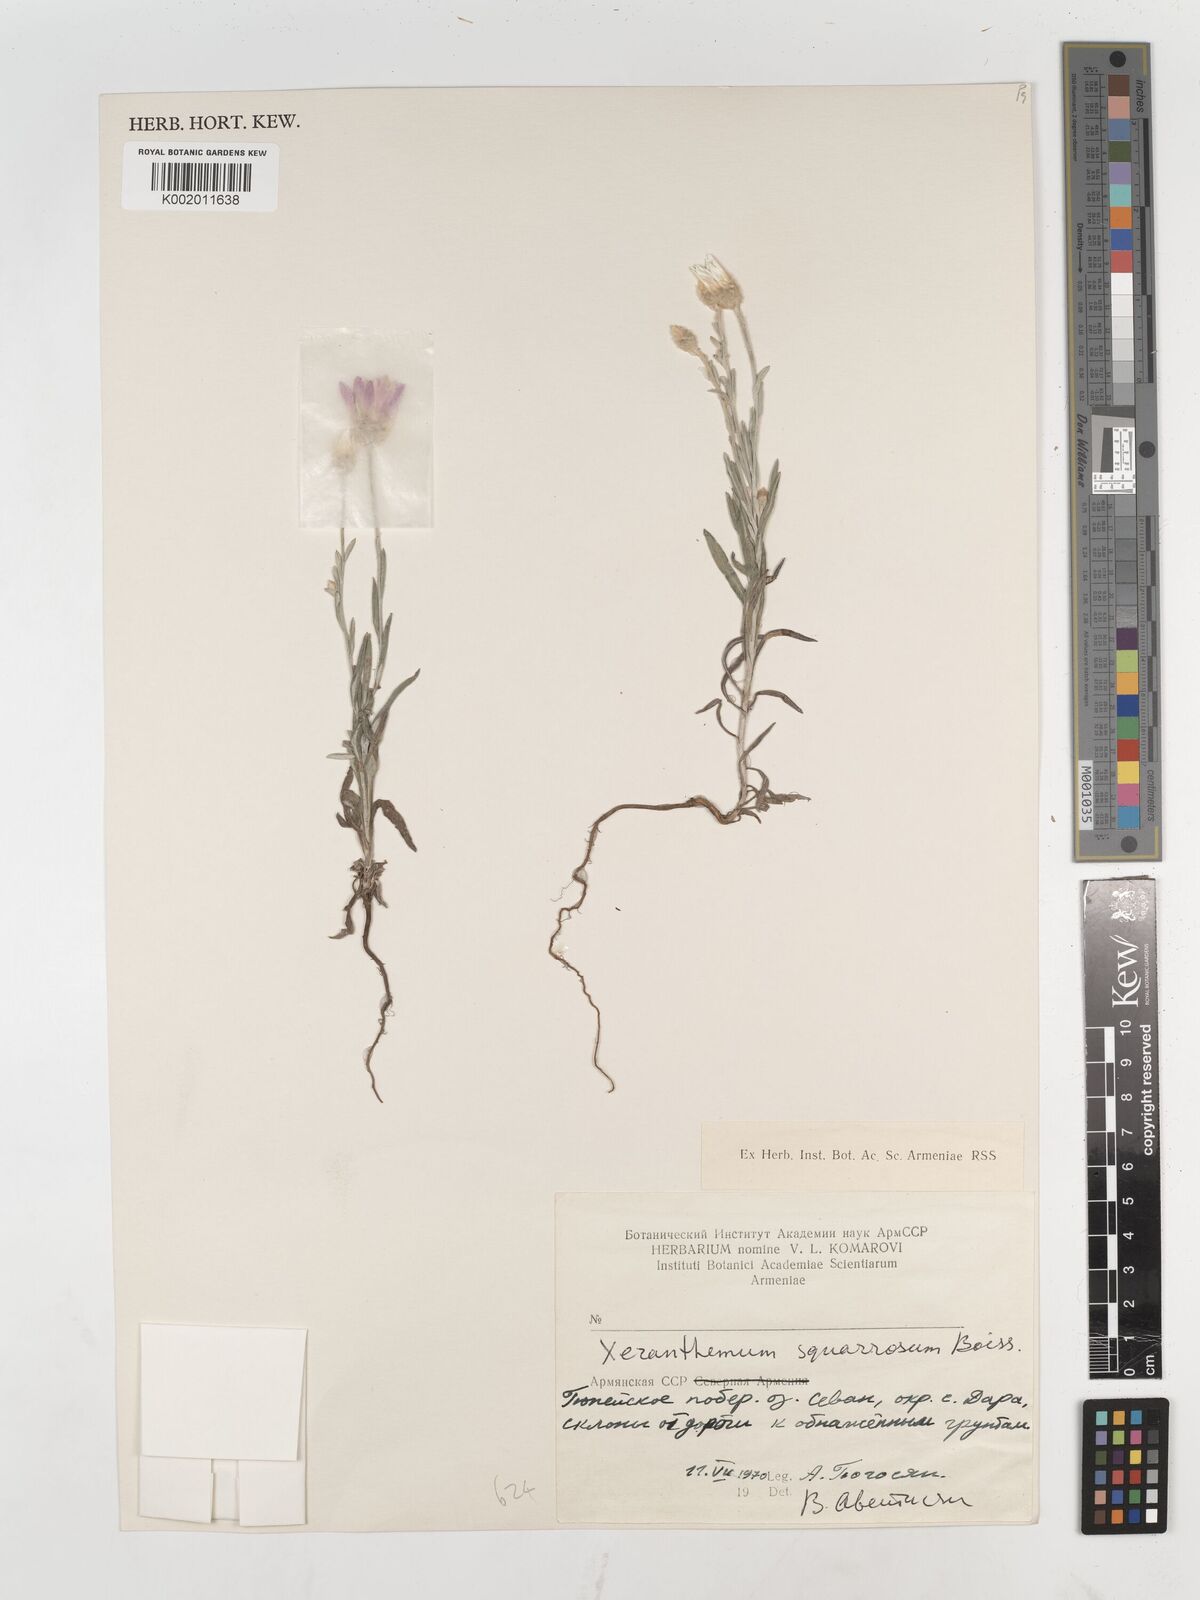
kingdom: Plantae
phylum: Tracheophyta
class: Magnoliopsida
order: Asterales
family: Asteraceae
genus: Xeranthemum
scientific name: Xeranthemum squarrosum
